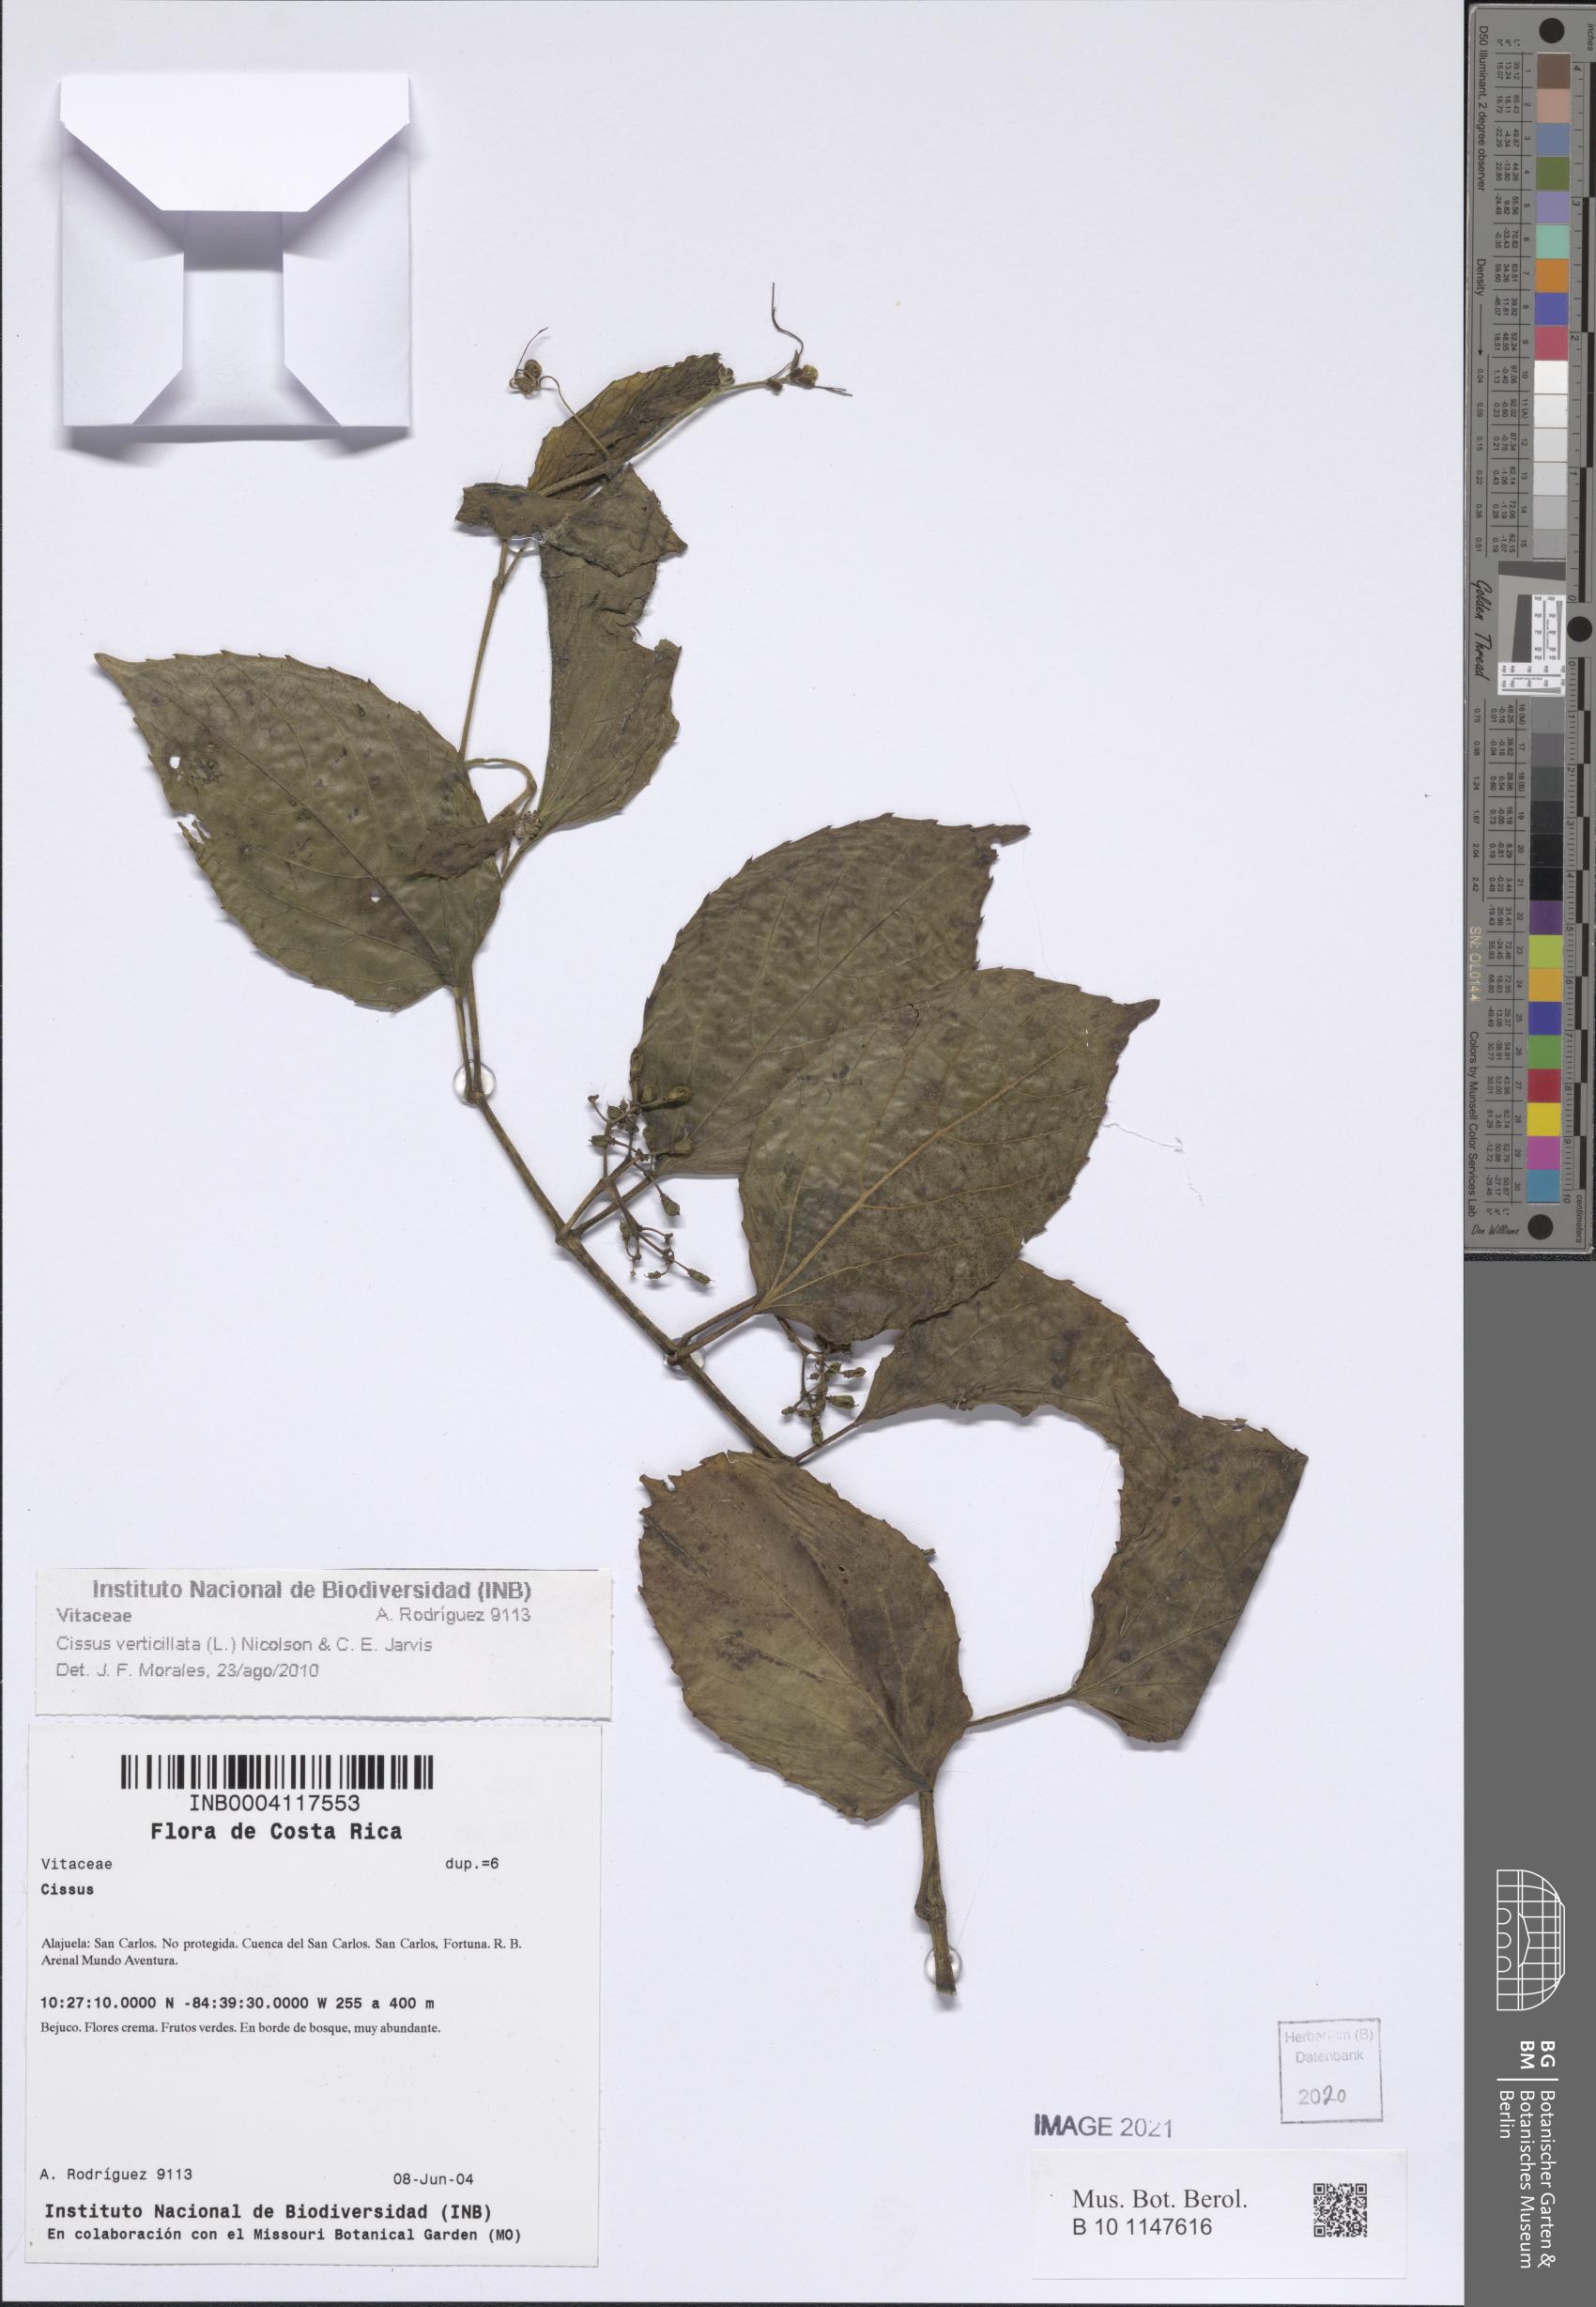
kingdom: Plantae
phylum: Tracheophyta
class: Magnoliopsida
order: Vitales
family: Vitaceae
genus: Cissus
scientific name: Cissus verticillata
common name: Princess vine
